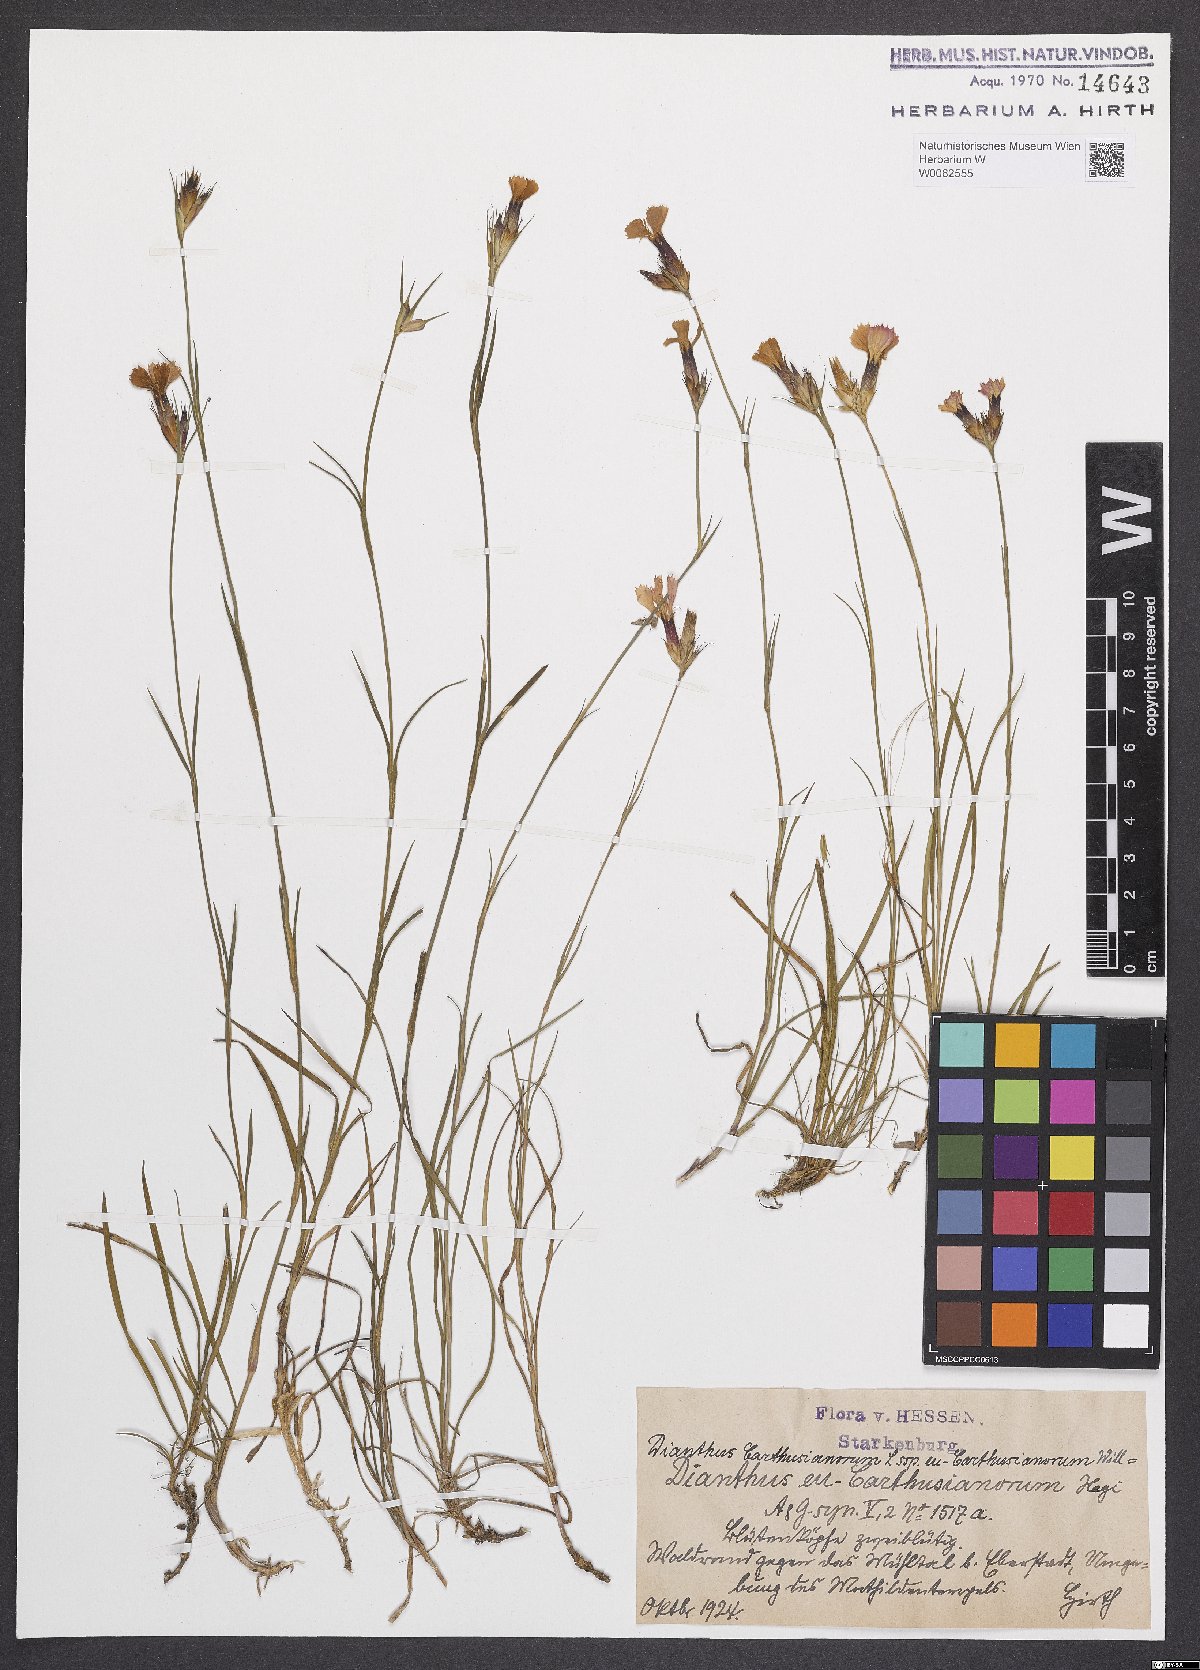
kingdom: Plantae
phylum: Tracheophyta
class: Magnoliopsida
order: Caryophyllales
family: Caryophyllaceae
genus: Dianthus
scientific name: Dianthus carthusianorum
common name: Carthusian pink
